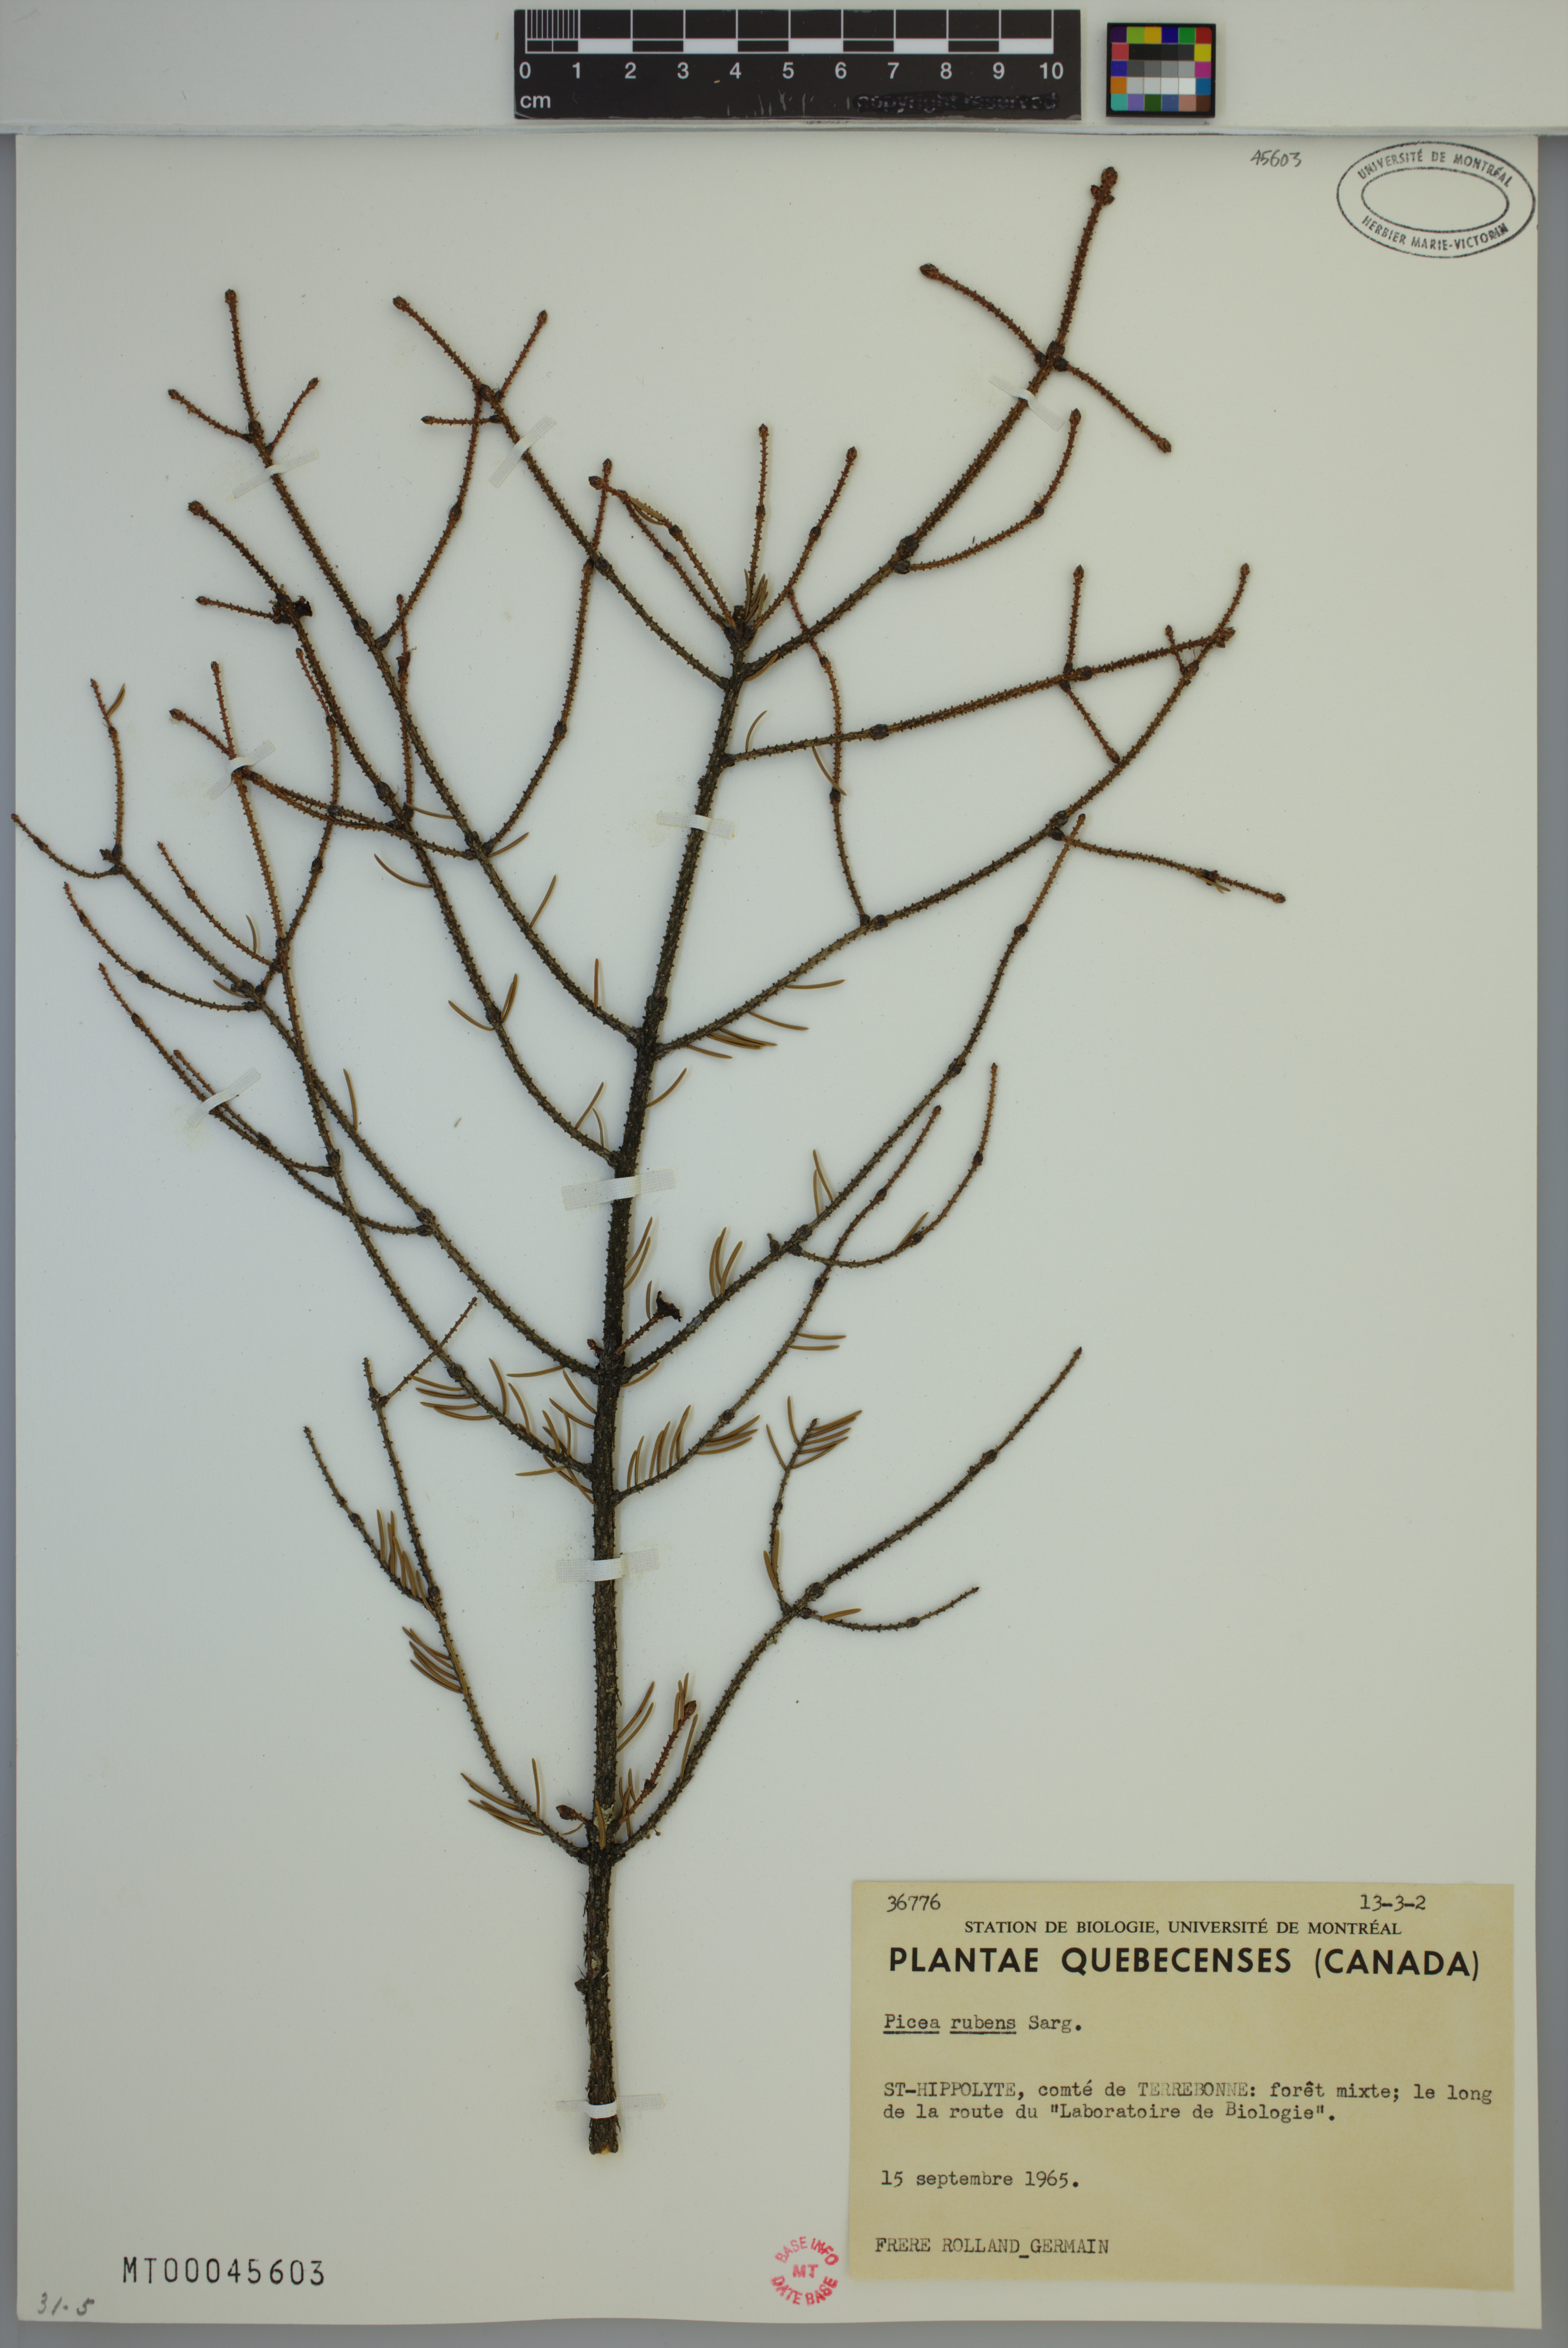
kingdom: Plantae
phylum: Tracheophyta
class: Pinopsida
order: Pinales
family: Pinaceae
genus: Picea
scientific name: Picea rubens
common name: Red spruce
